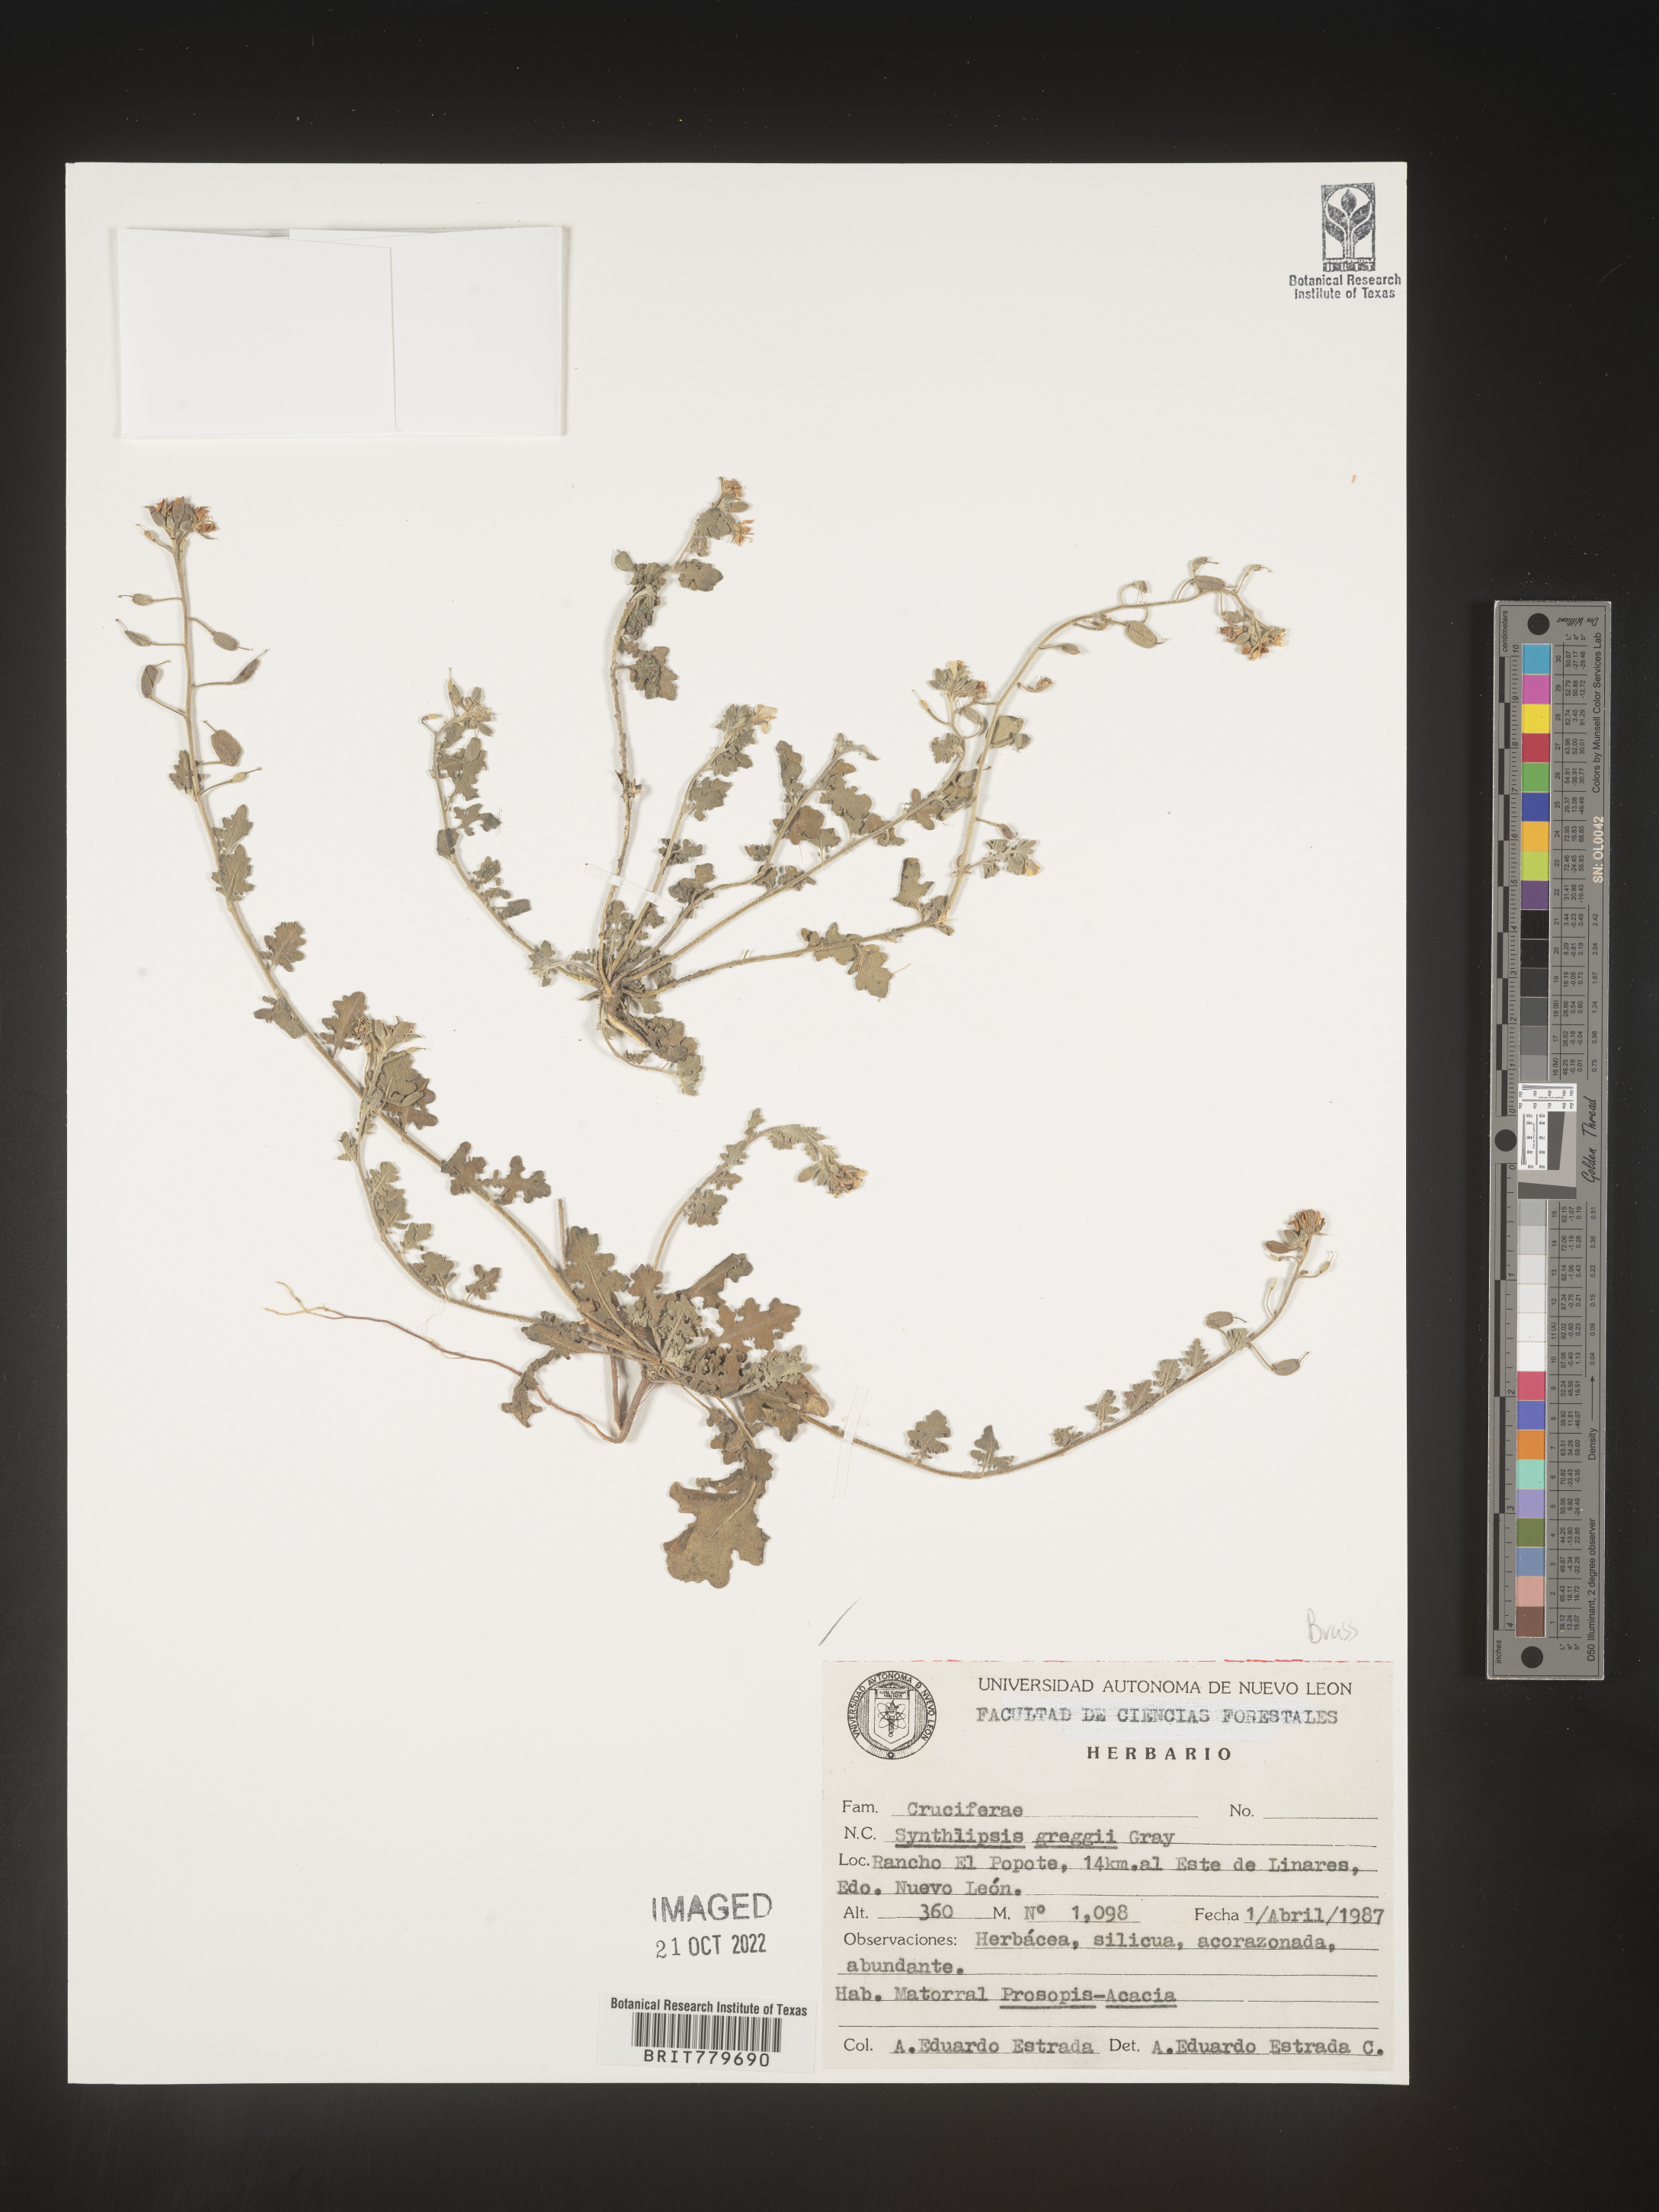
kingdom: Plantae
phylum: Tracheophyta
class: Magnoliopsida
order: Brassicales
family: Brassicaceae
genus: Synthlipsis
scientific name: Synthlipsis
